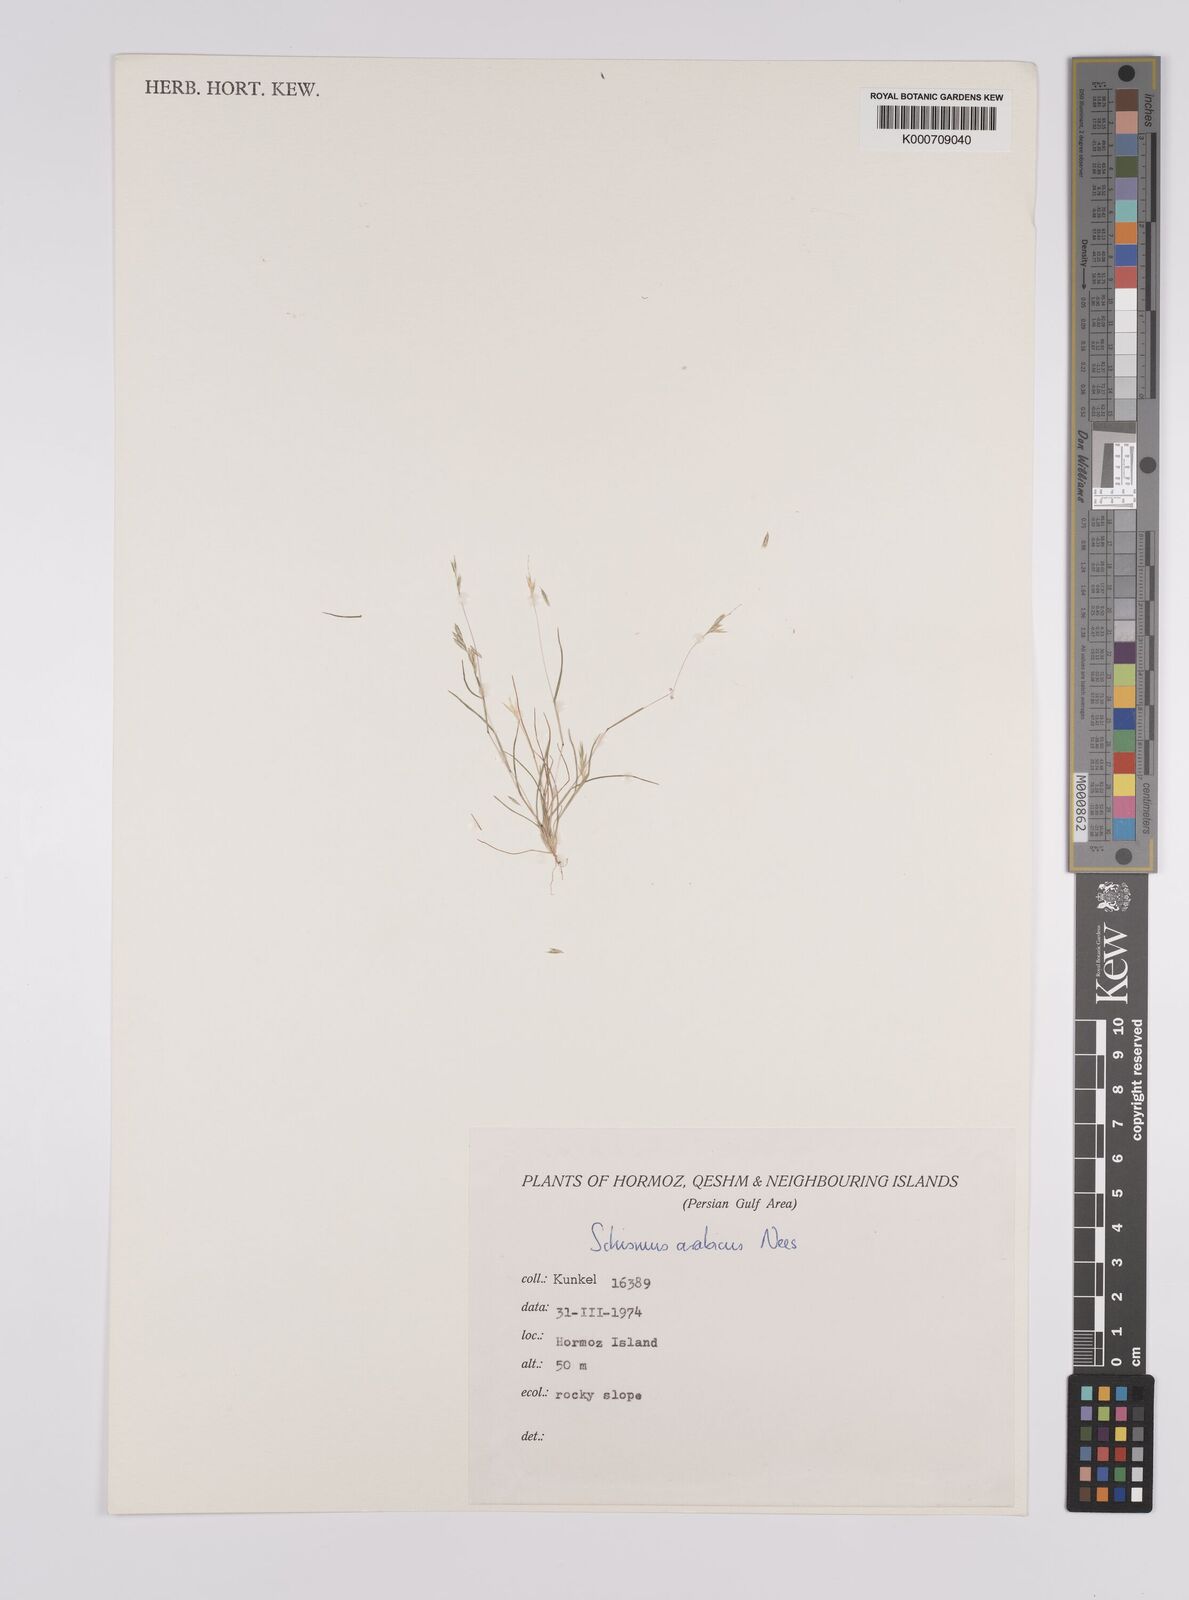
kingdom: Plantae
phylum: Tracheophyta
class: Liliopsida
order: Poales
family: Poaceae
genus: Schismus
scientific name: Schismus arabicus
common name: Arabian schismus
